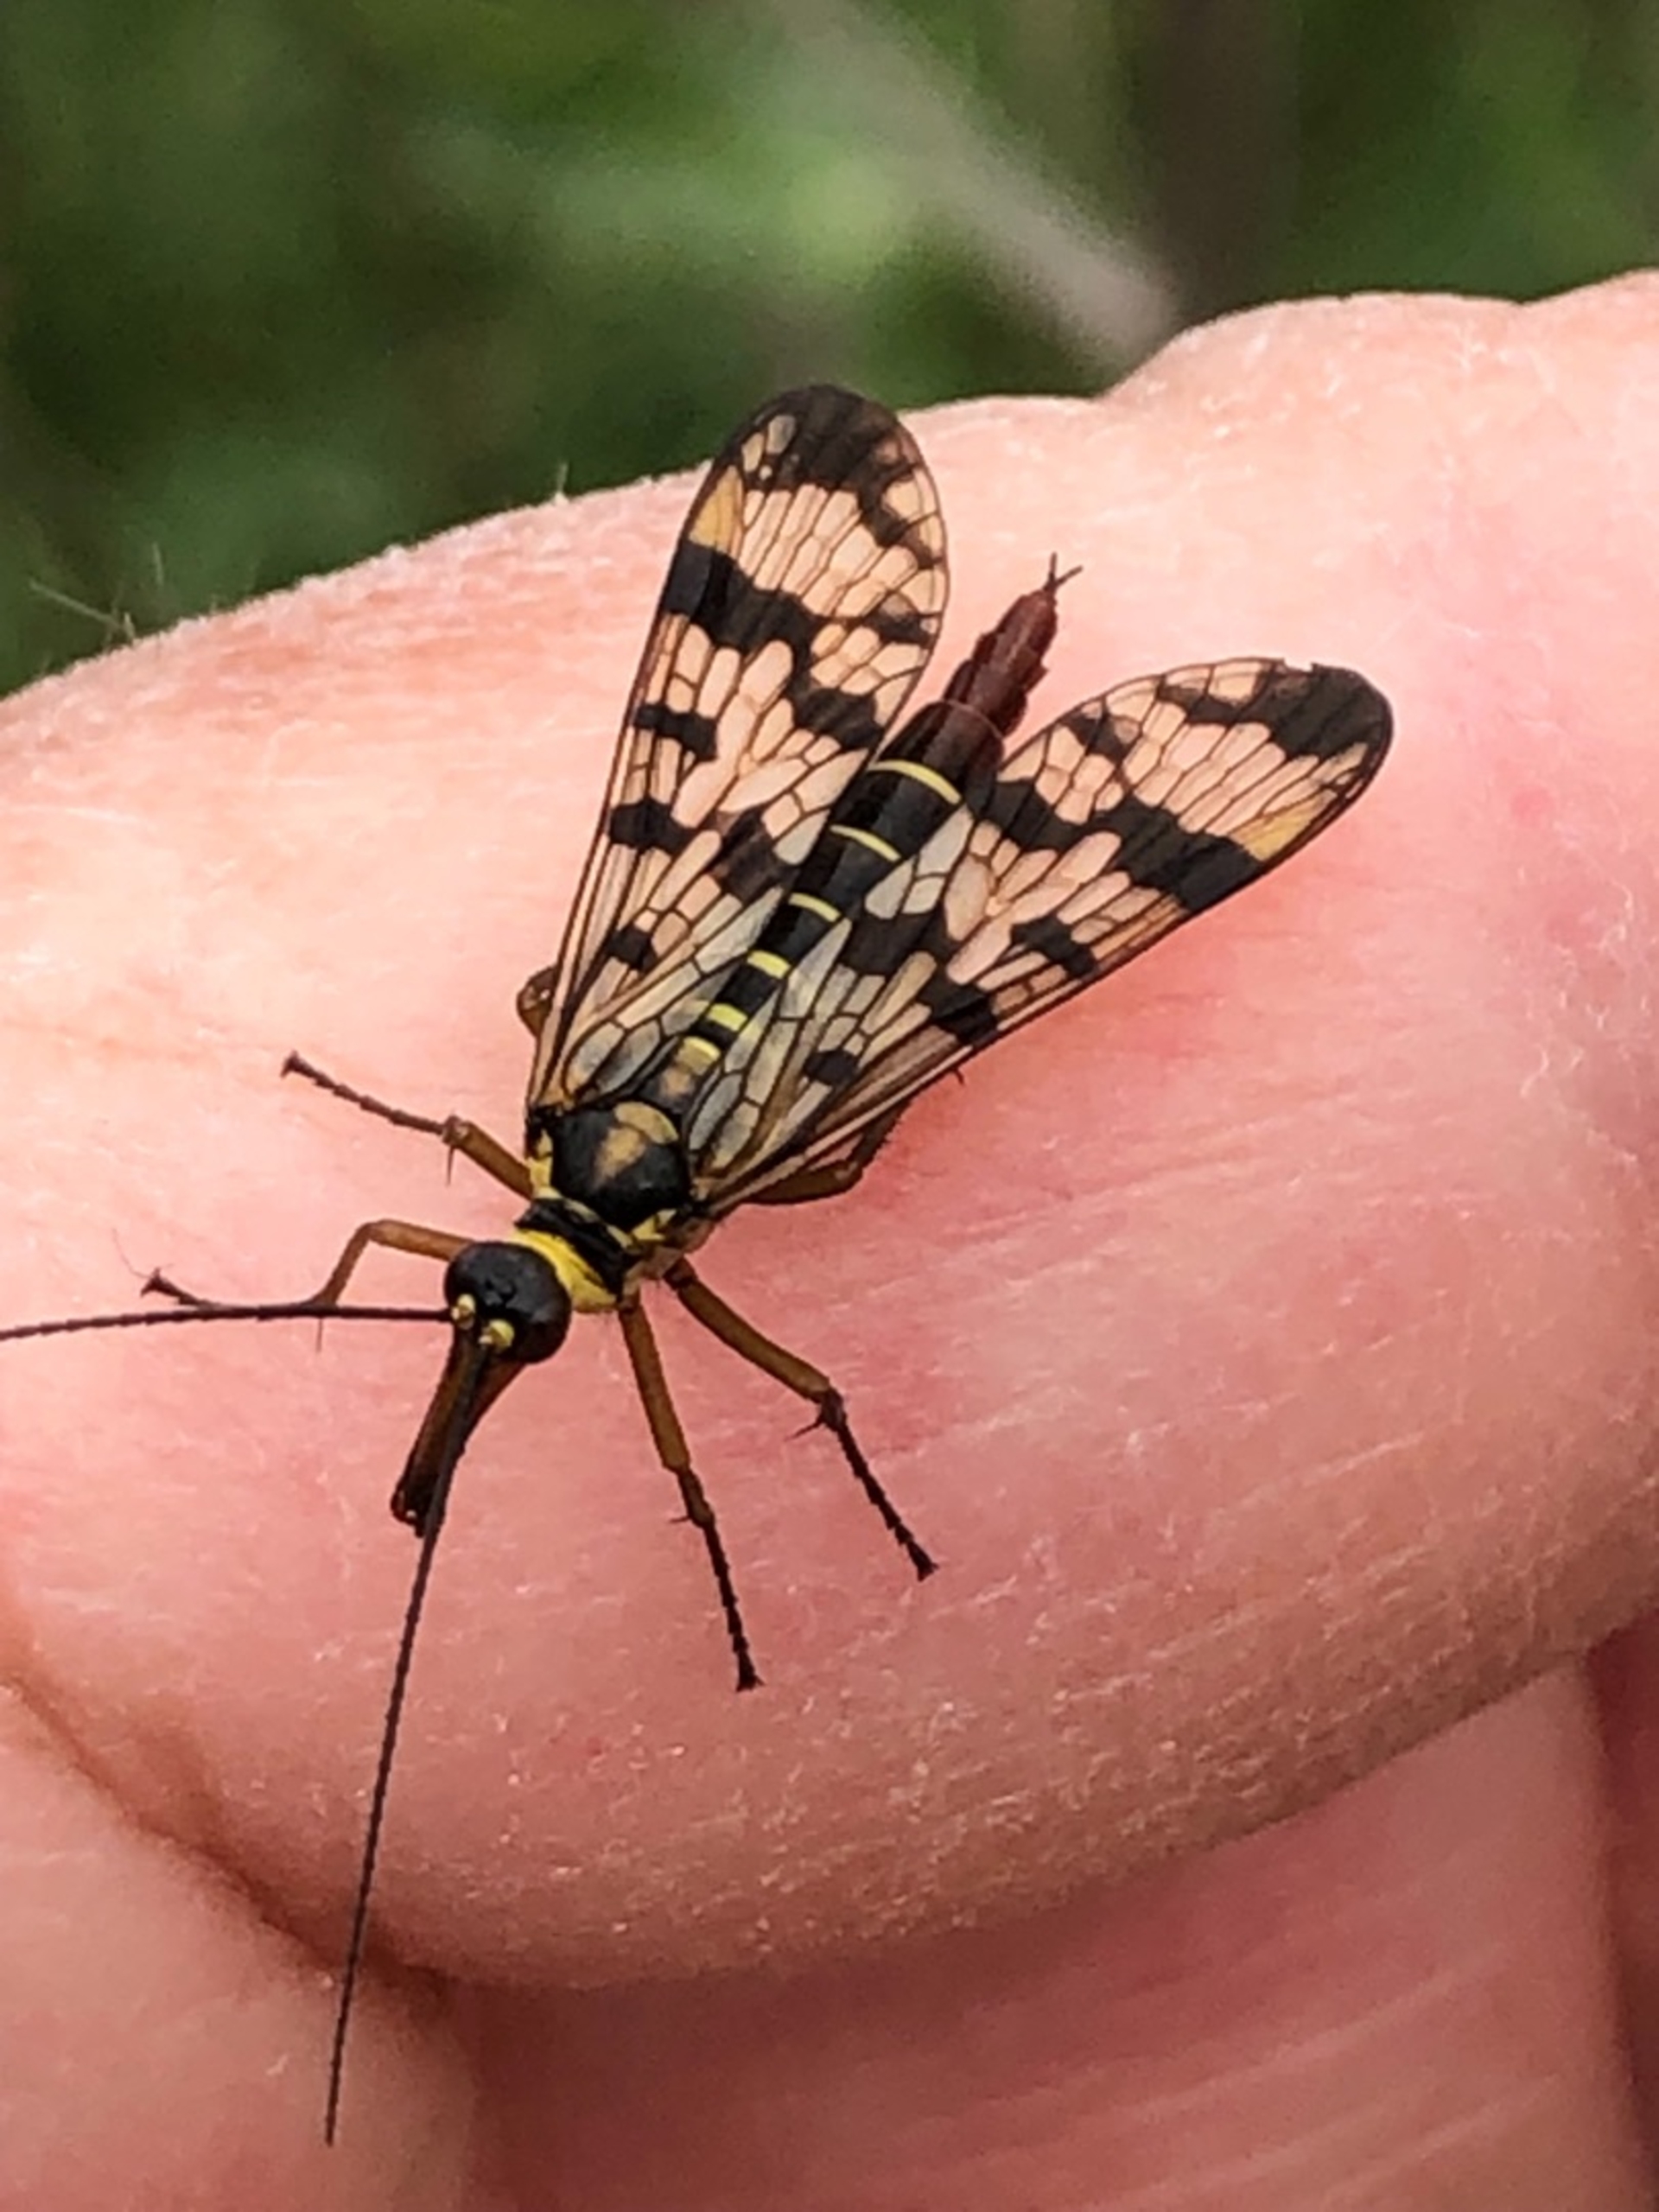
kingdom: Animalia
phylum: Arthropoda
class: Insecta
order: Mecoptera
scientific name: Mecoptera
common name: Skorpionsfluer
